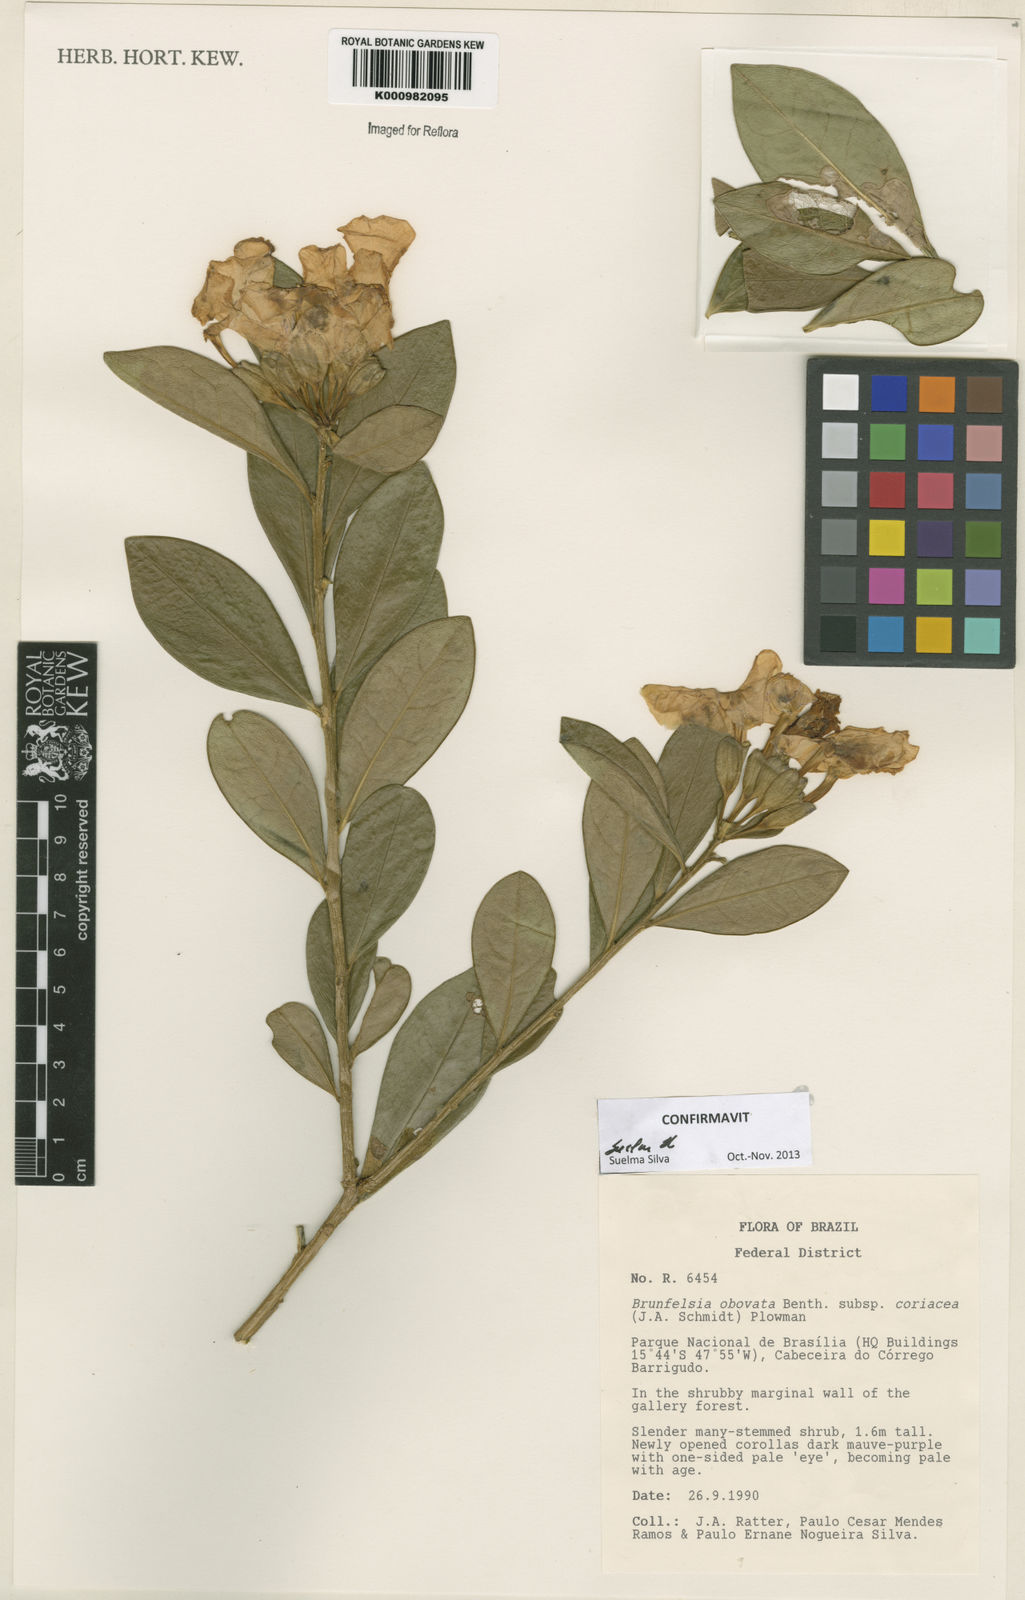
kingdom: Plantae
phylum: Tracheophyta
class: Magnoliopsida
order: Solanales
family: Solanaceae
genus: Brunfelsia
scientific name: Brunfelsia obovata
